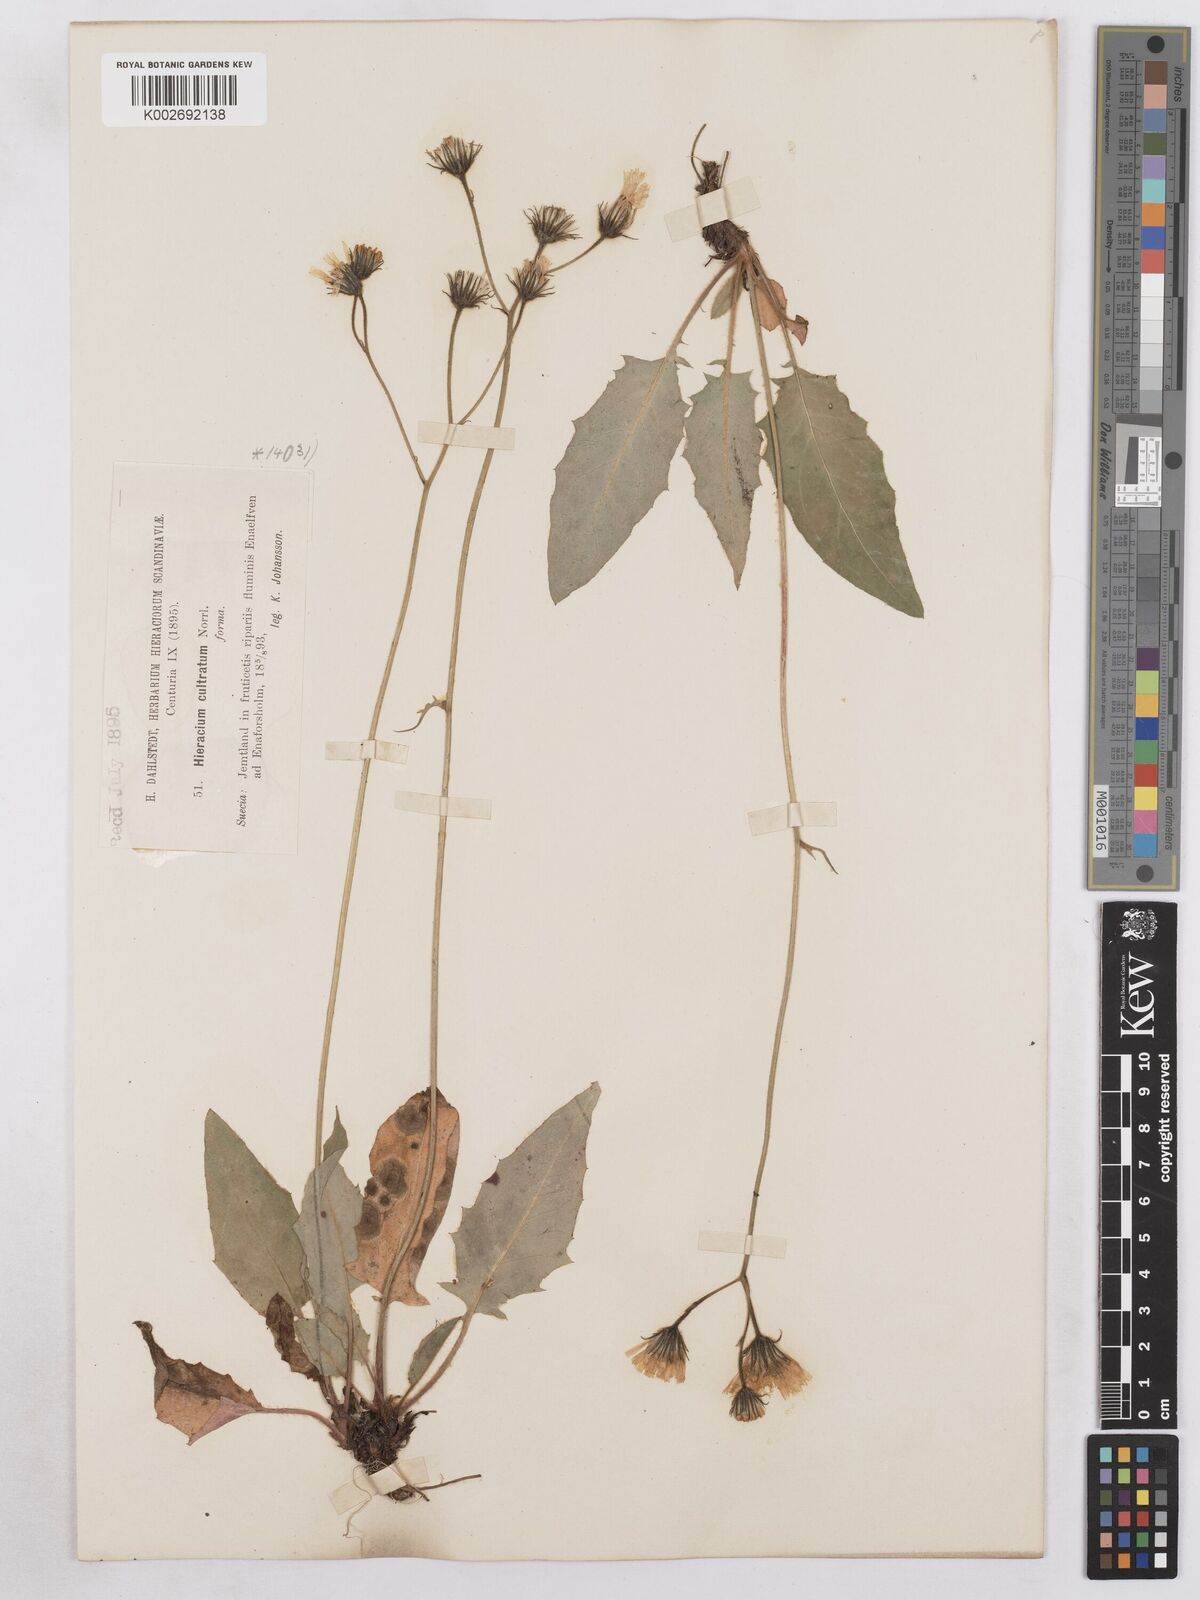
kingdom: Plantae
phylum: Tracheophyta
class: Magnoliopsida
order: Asterales
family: Asteraceae
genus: Hieracium
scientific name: Hieracium fuscocinereum
